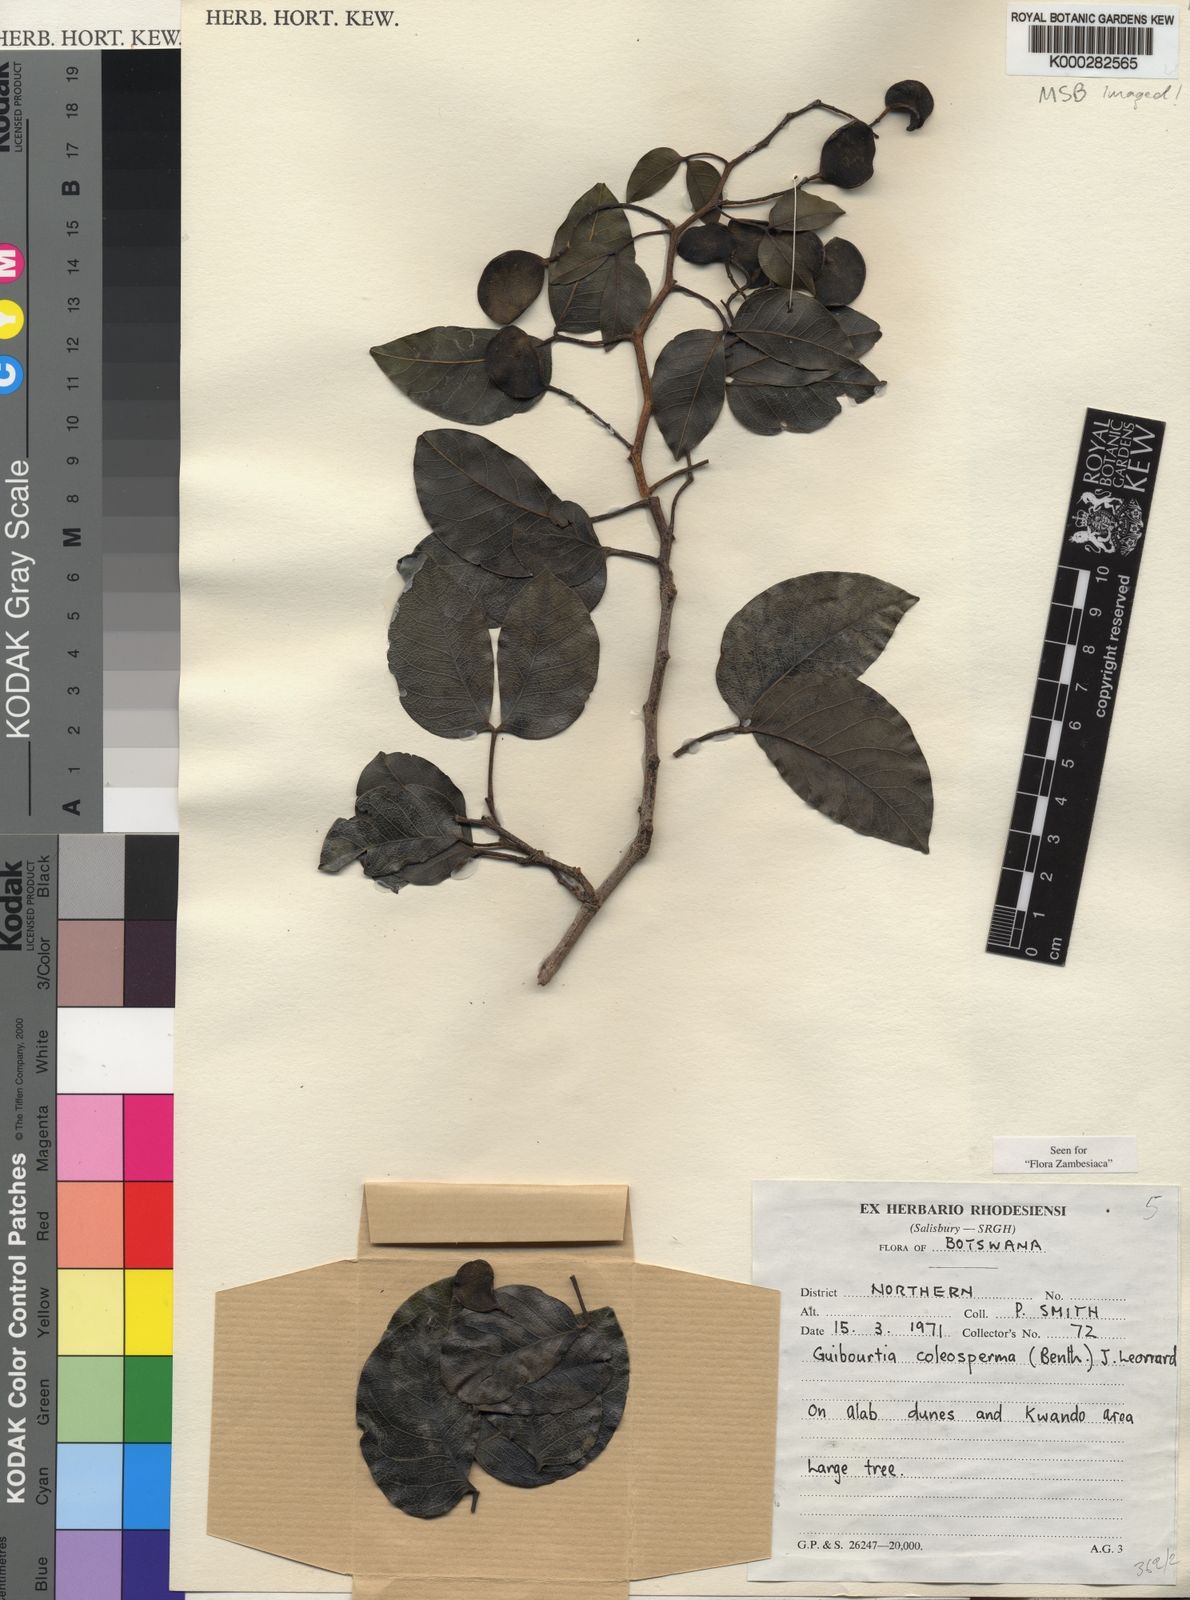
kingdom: Plantae
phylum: Tracheophyta
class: Magnoliopsida
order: Fabales
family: Fabaceae
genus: Guibourtia
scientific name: Guibourtia coleosperma
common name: African rosewoood
